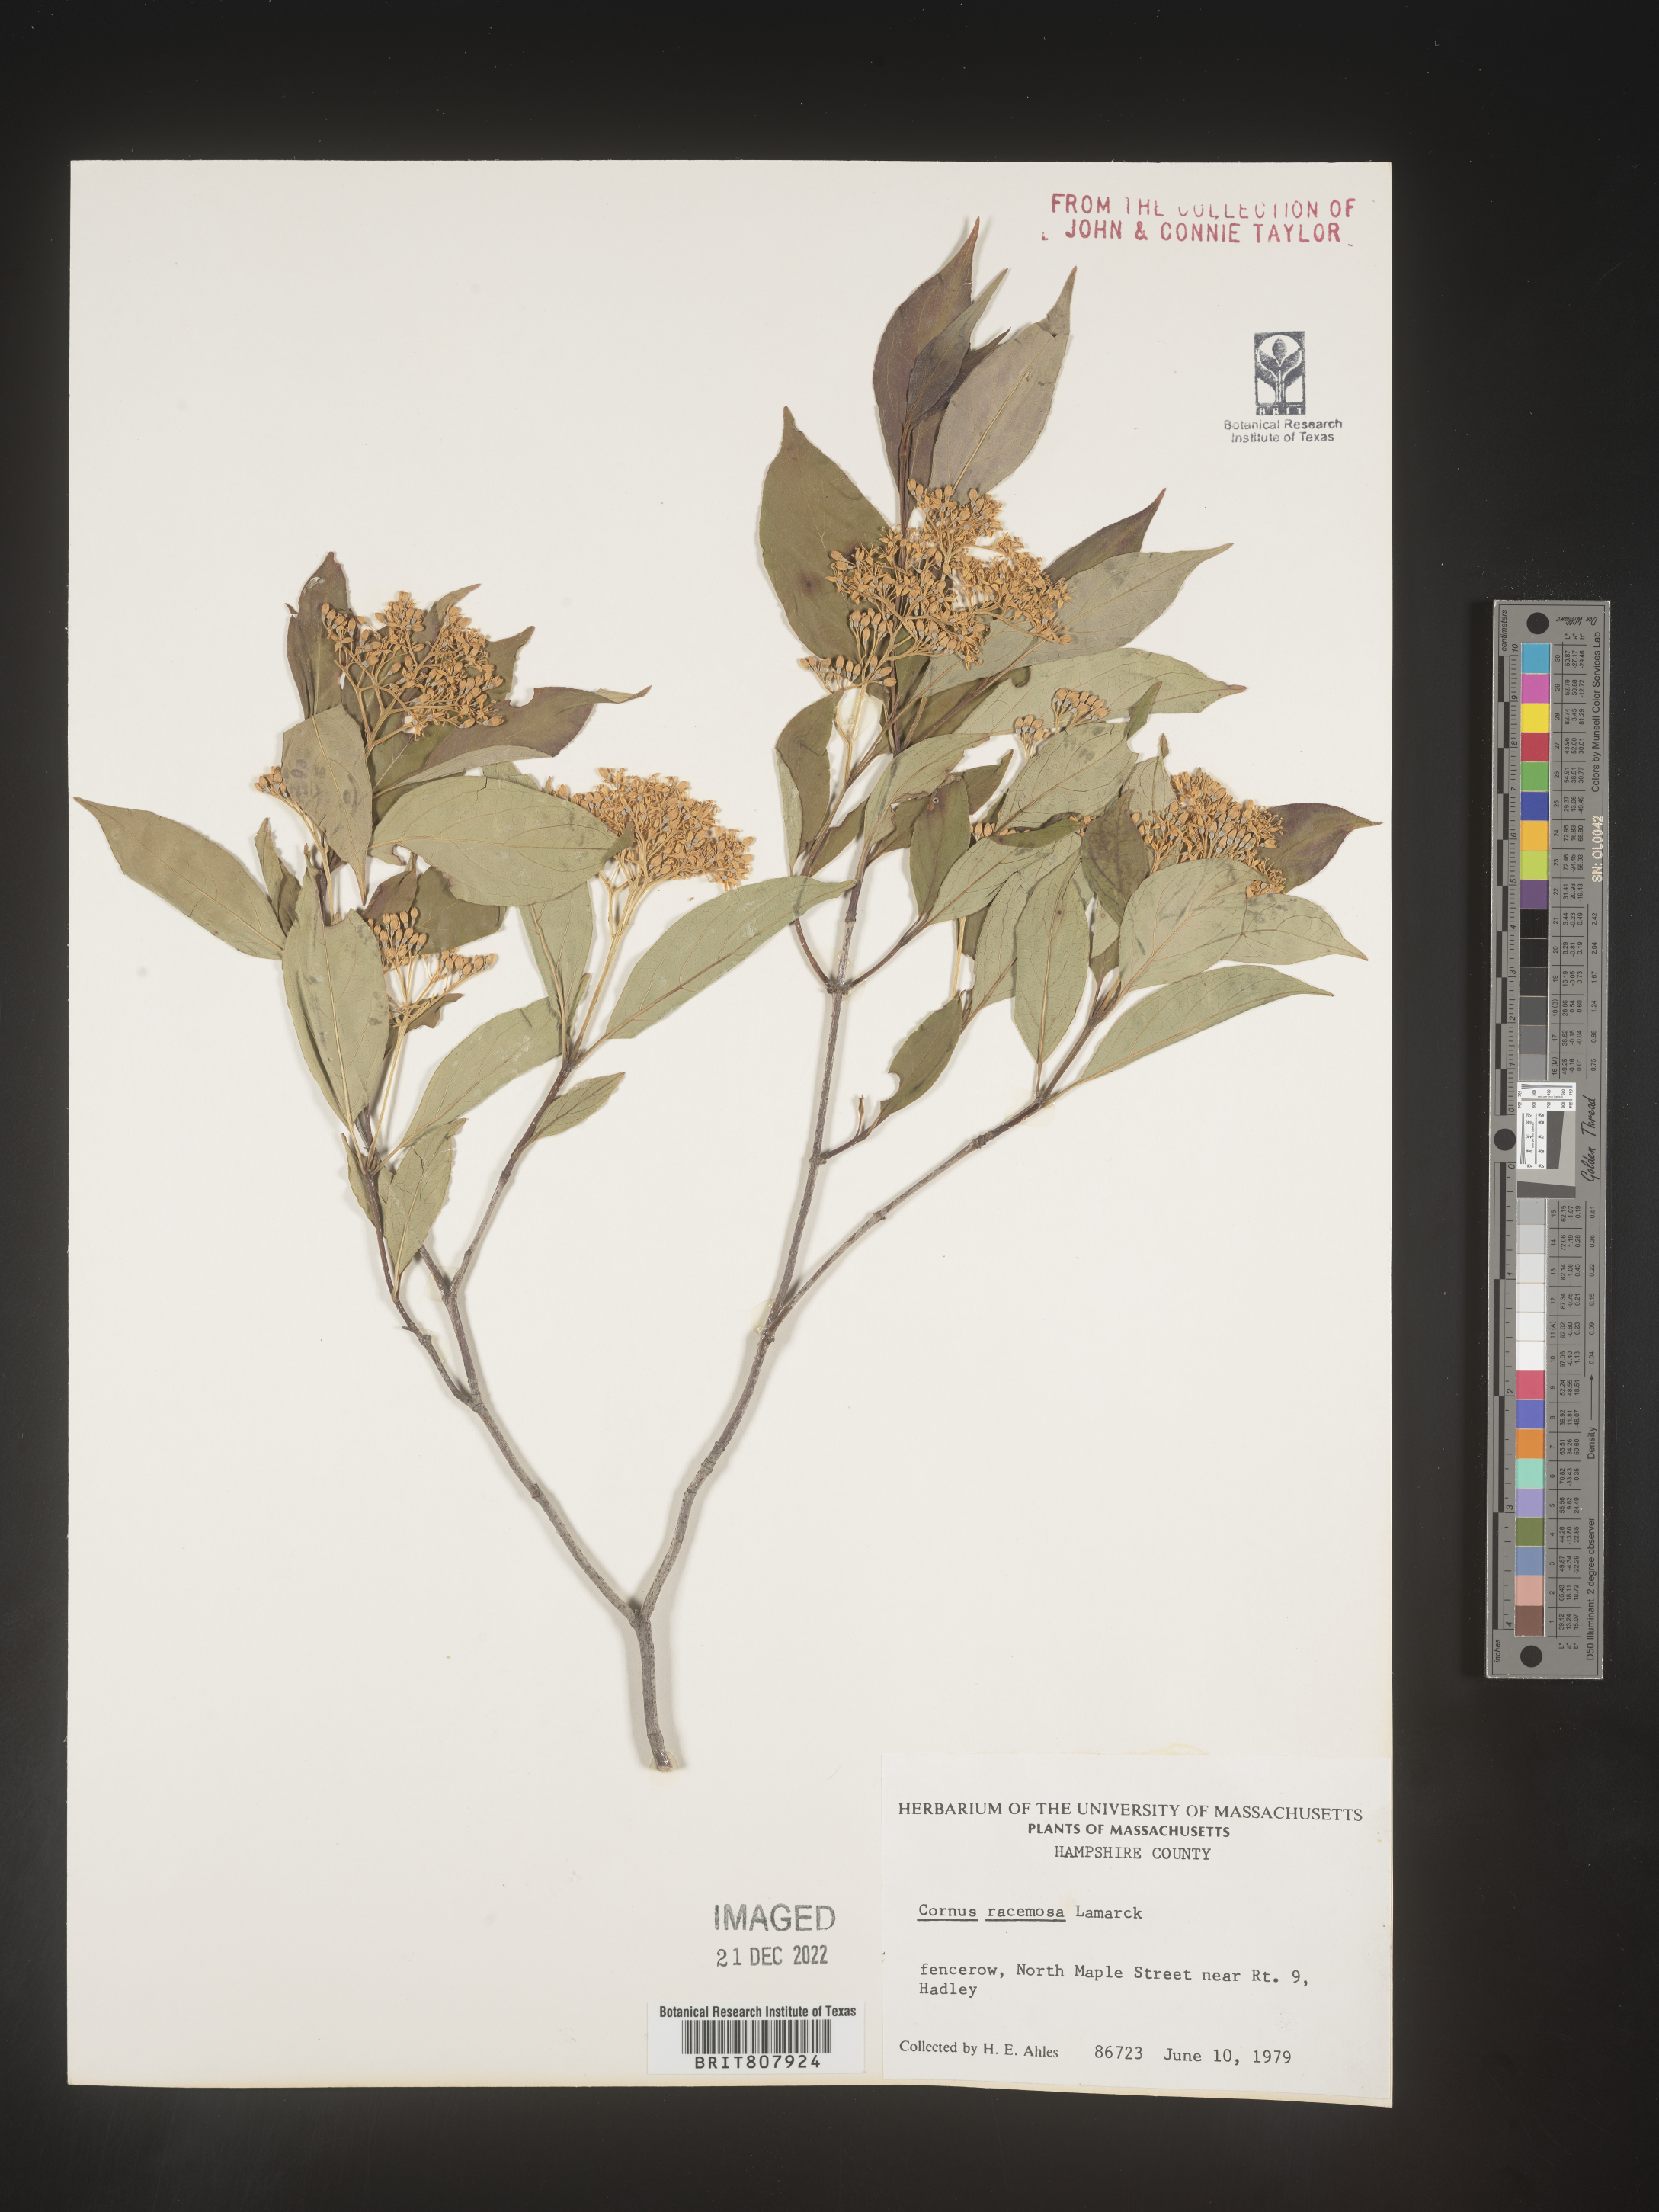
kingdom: Plantae
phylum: Tracheophyta
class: Magnoliopsida
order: Cornales
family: Cornaceae
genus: Cornus
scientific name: Cornus racemosa
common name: Panicled dogwood
